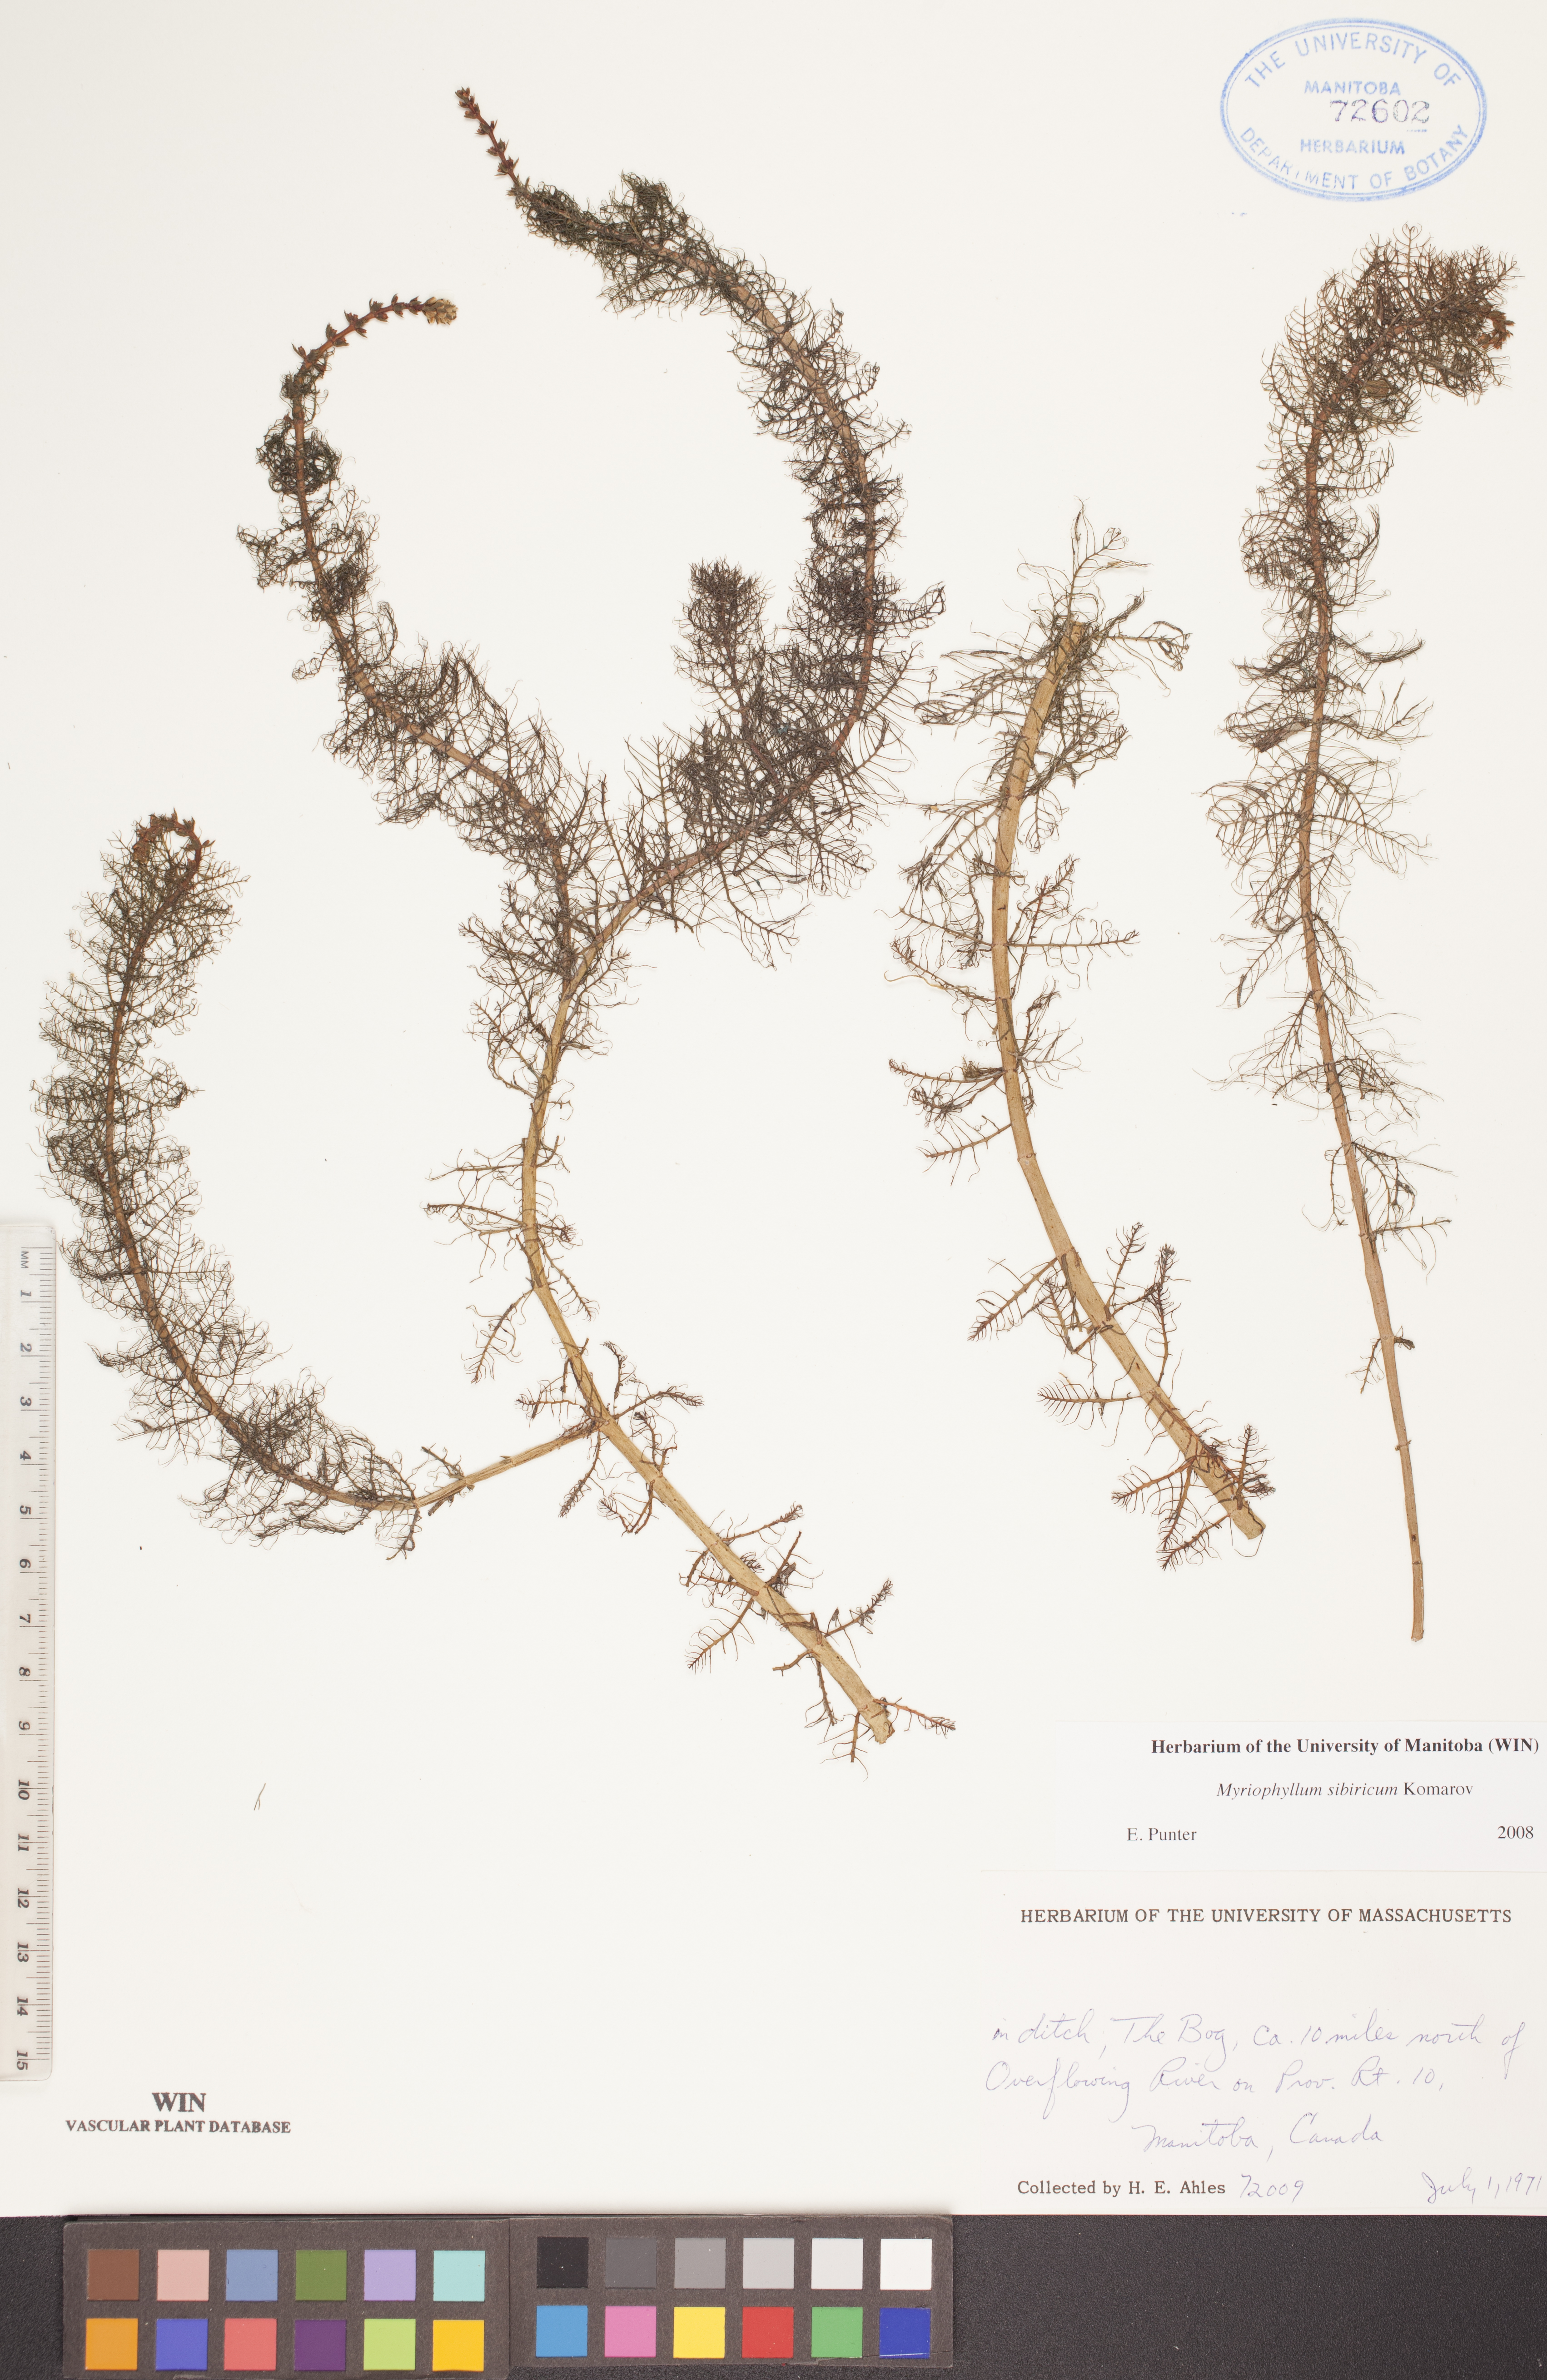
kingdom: Plantae
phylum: Tracheophyta
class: Magnoliopsida
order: Saxifragales
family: Haloragaceae
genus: Myriophyllum
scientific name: Myriophyllum sibiricum
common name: Siberian water-milfoil
